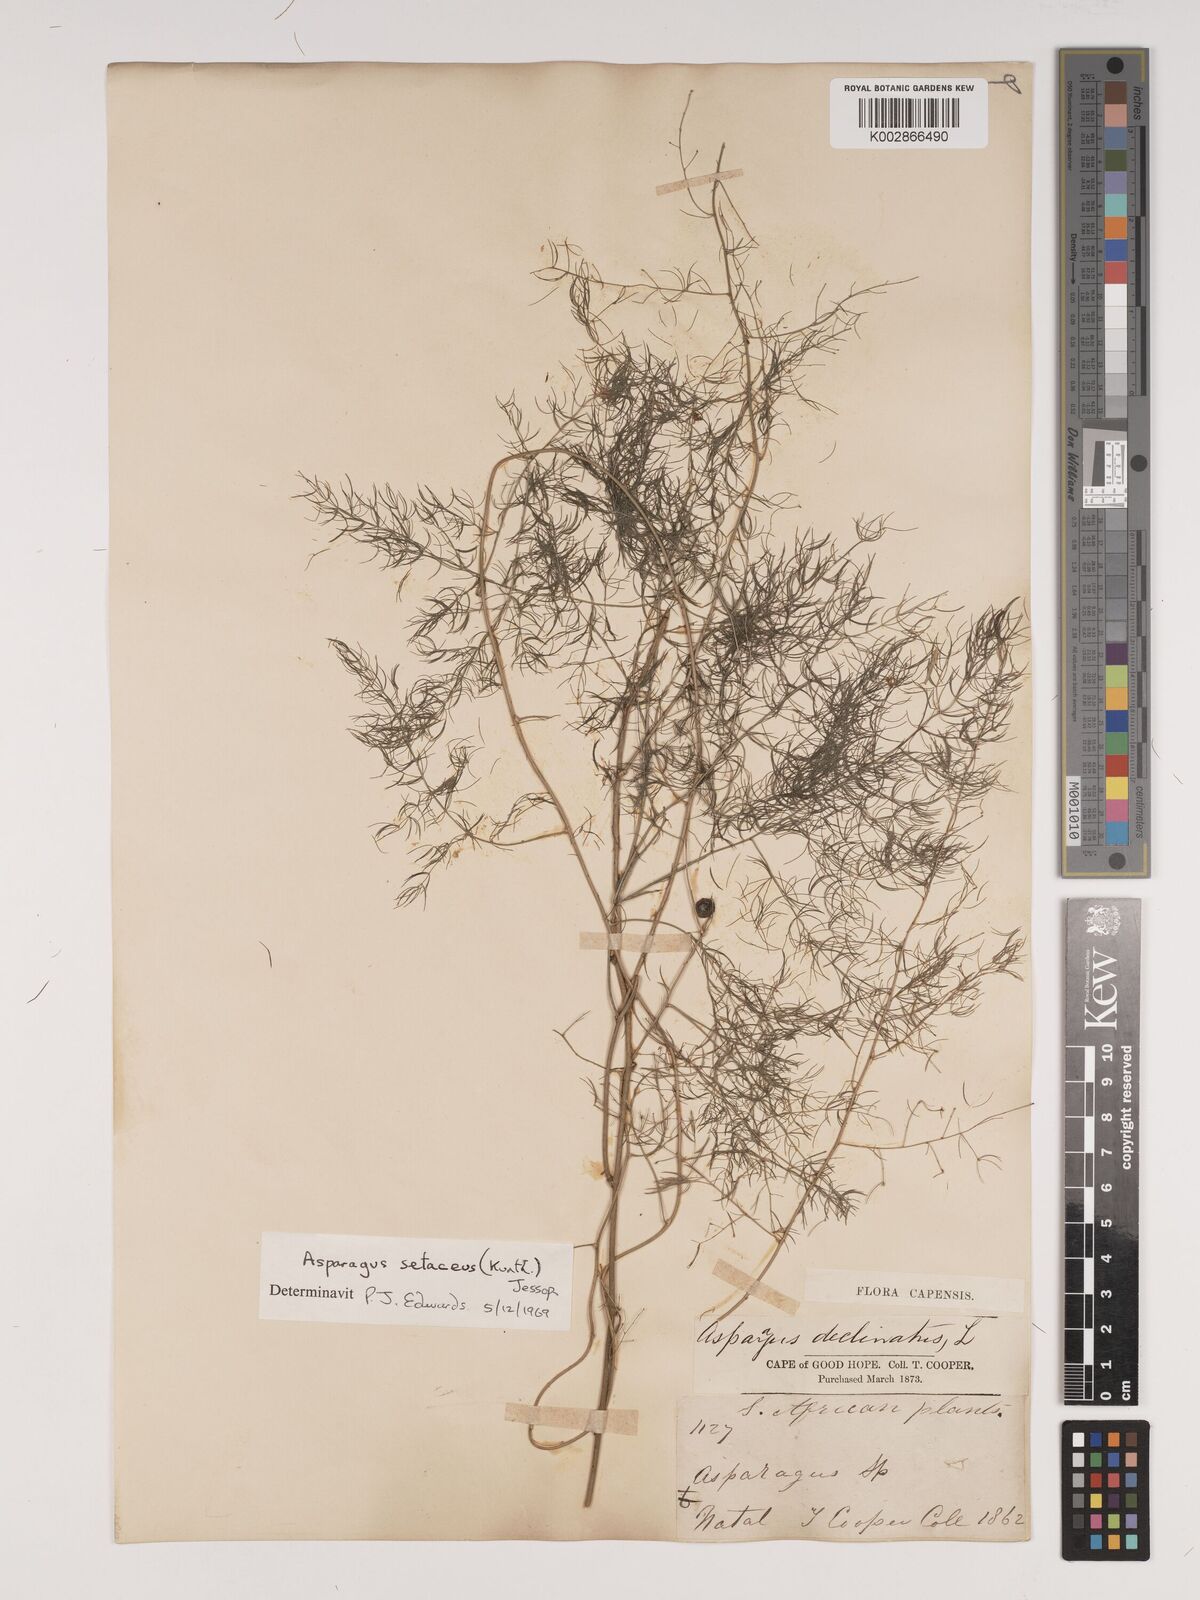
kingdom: Plantae
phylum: Tracheophyta
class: Liliopsida
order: Asparagales
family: Asparagaceae
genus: Asparagus
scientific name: Asparagus setaceus
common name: Common asparagus fern
